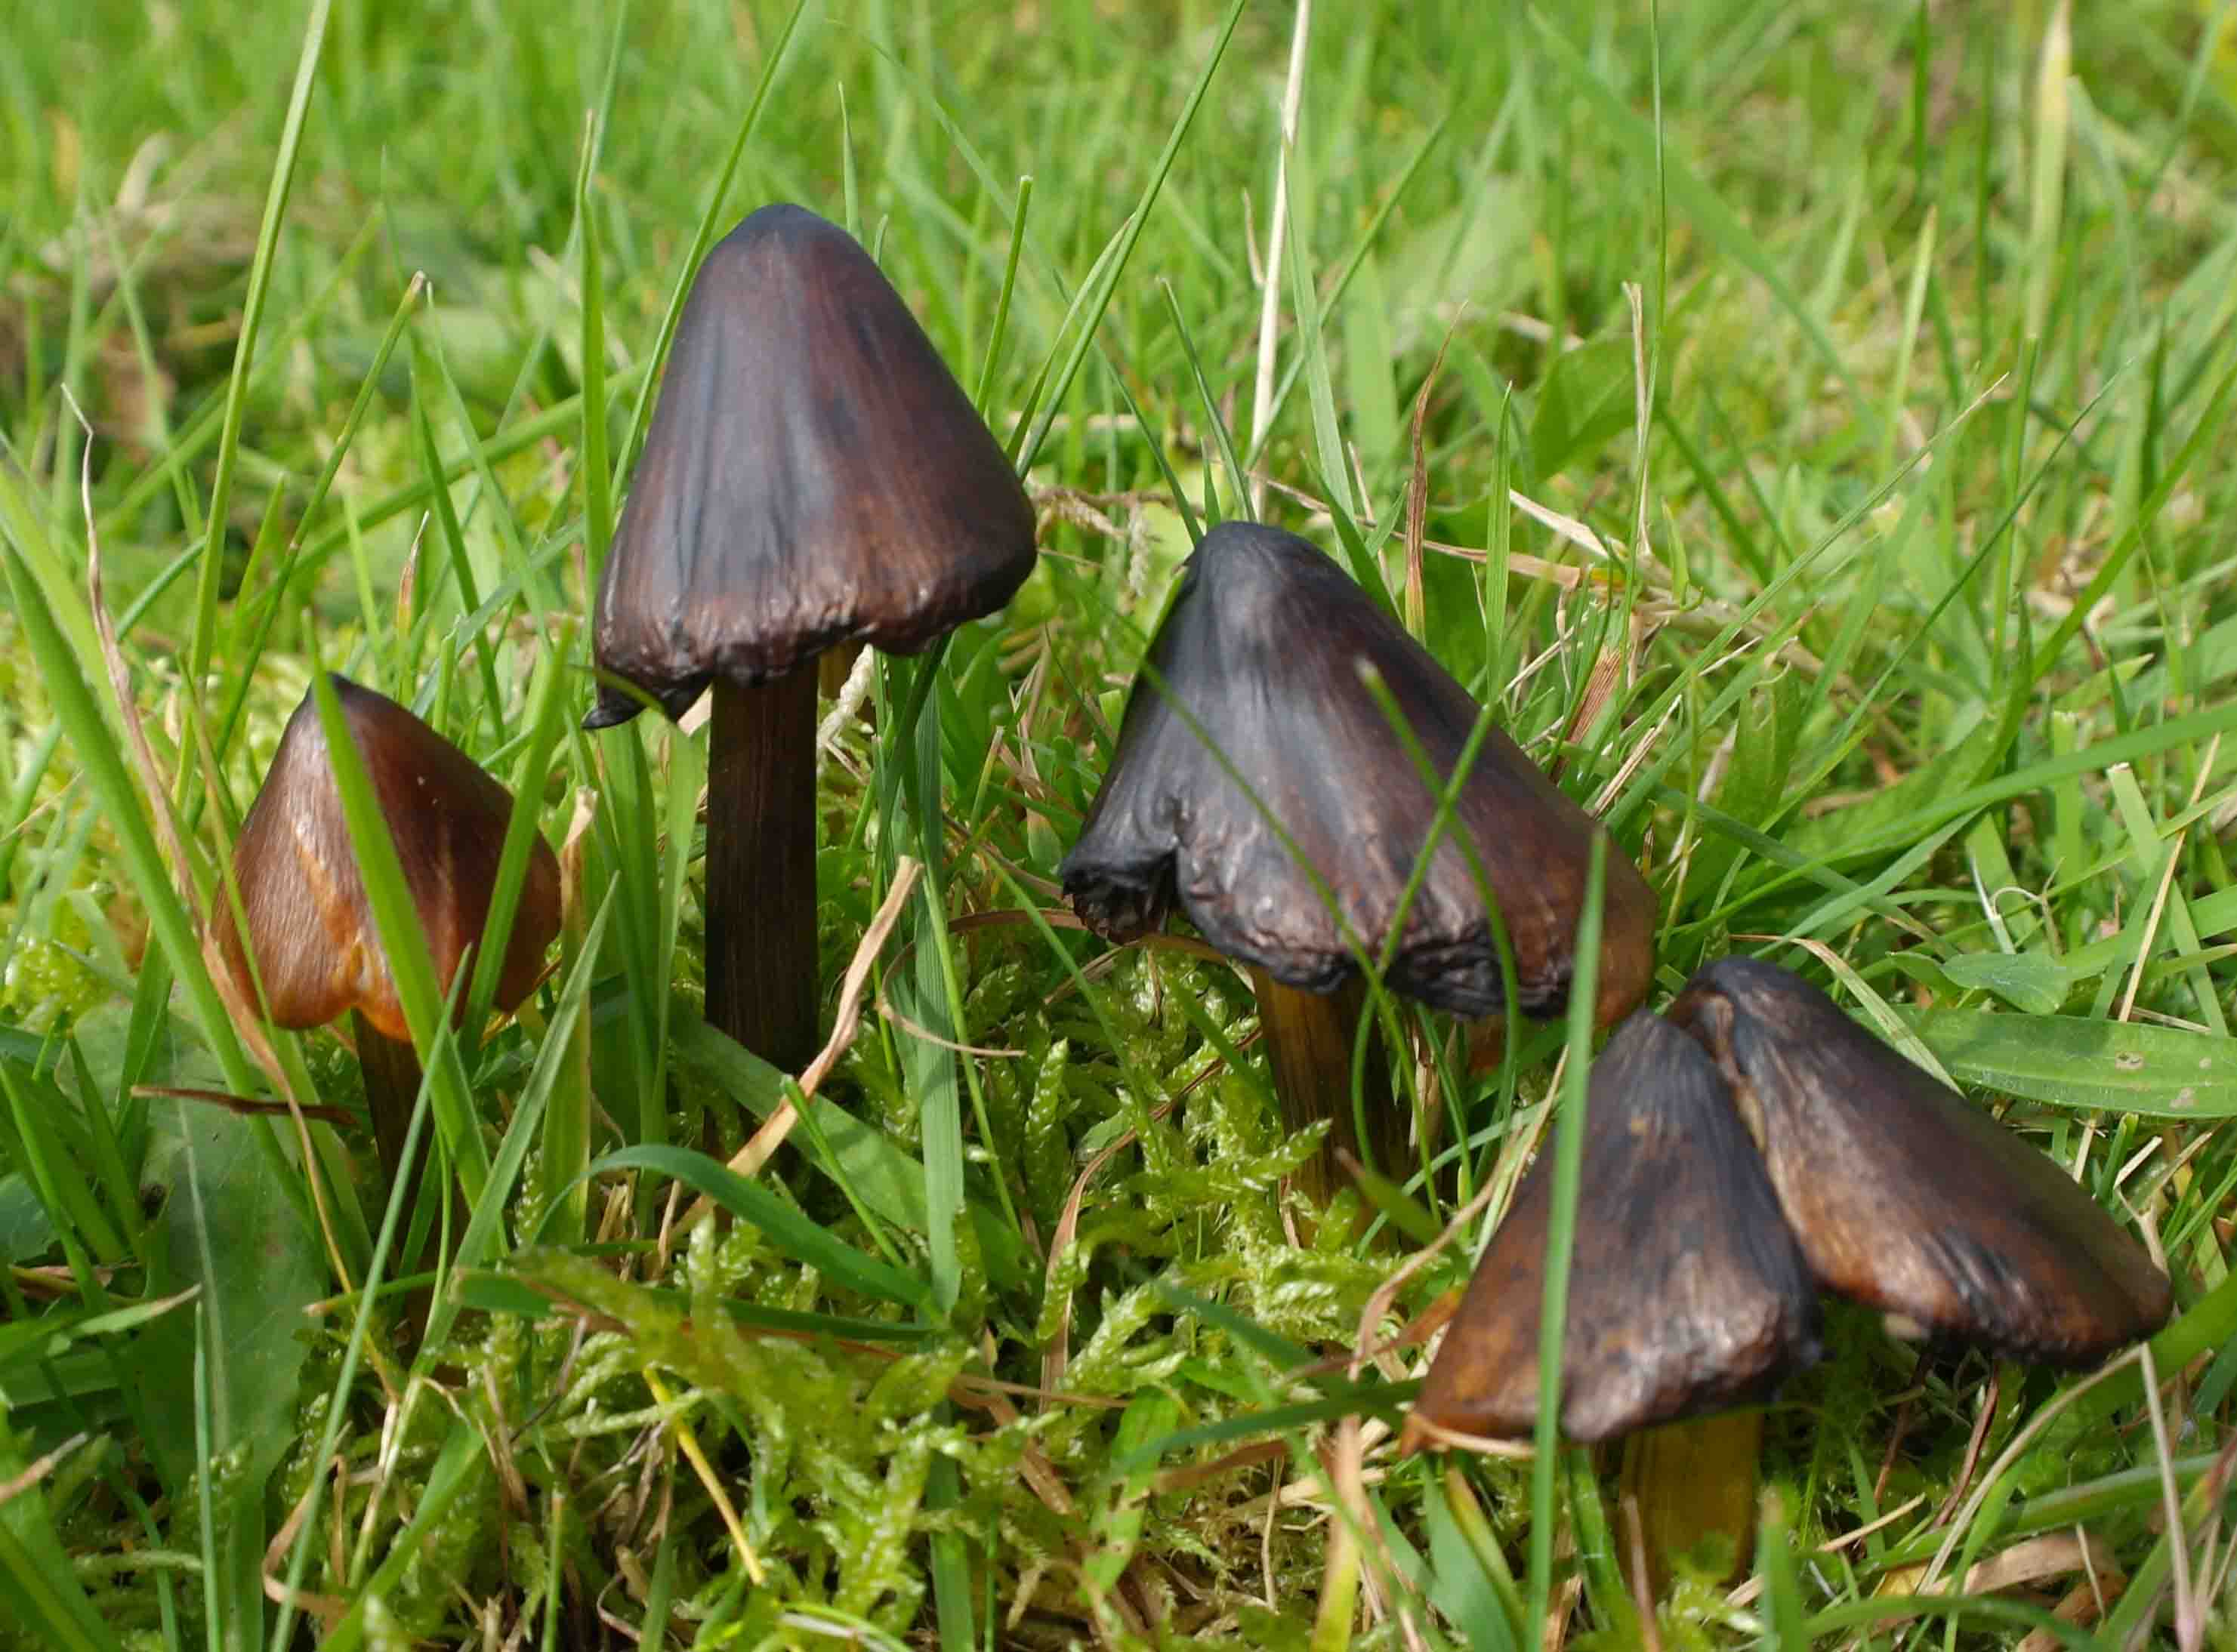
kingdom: Fungi
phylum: Basidiomycota
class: Agaricomycetes
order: Agaricales
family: Hygrophoraceae
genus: Hygrocybe
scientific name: Hygrocybe conica
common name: kegle-vokshat
